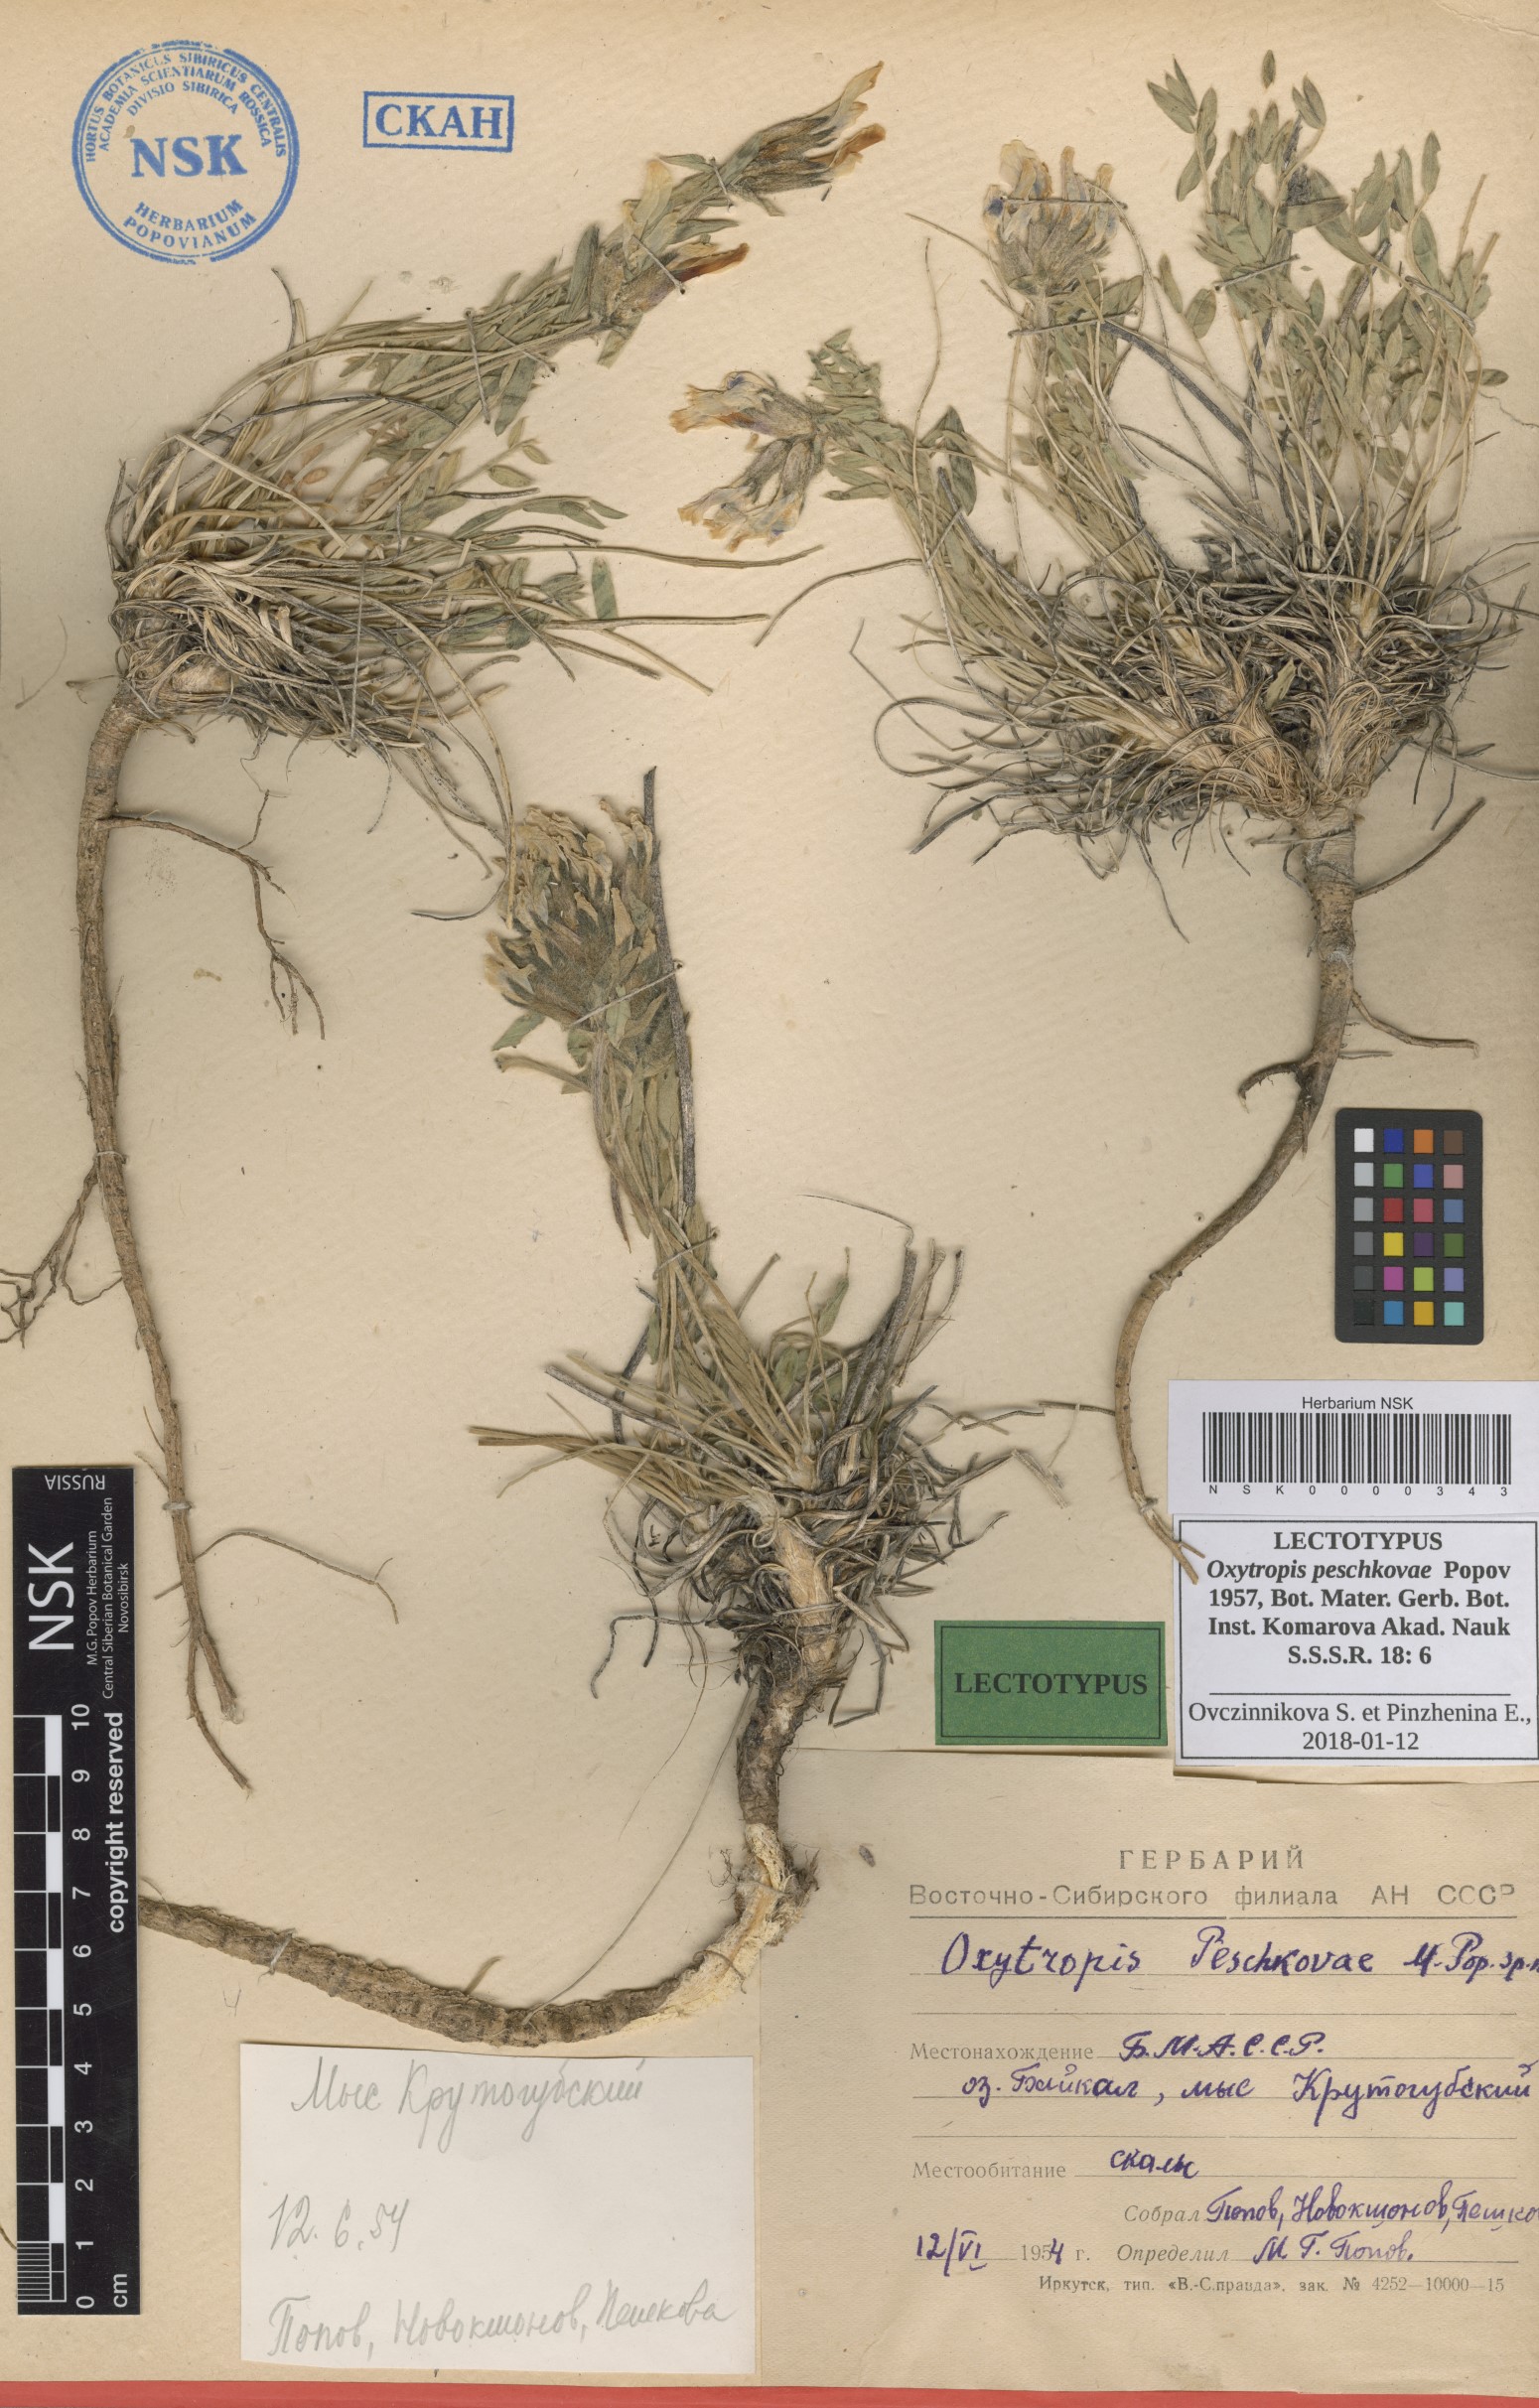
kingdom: Plantae
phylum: Tracheophyta
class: Magnoliopsida
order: Fabales
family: Fabaceae
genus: Oxytropis
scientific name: Oxytropis peschkovae
